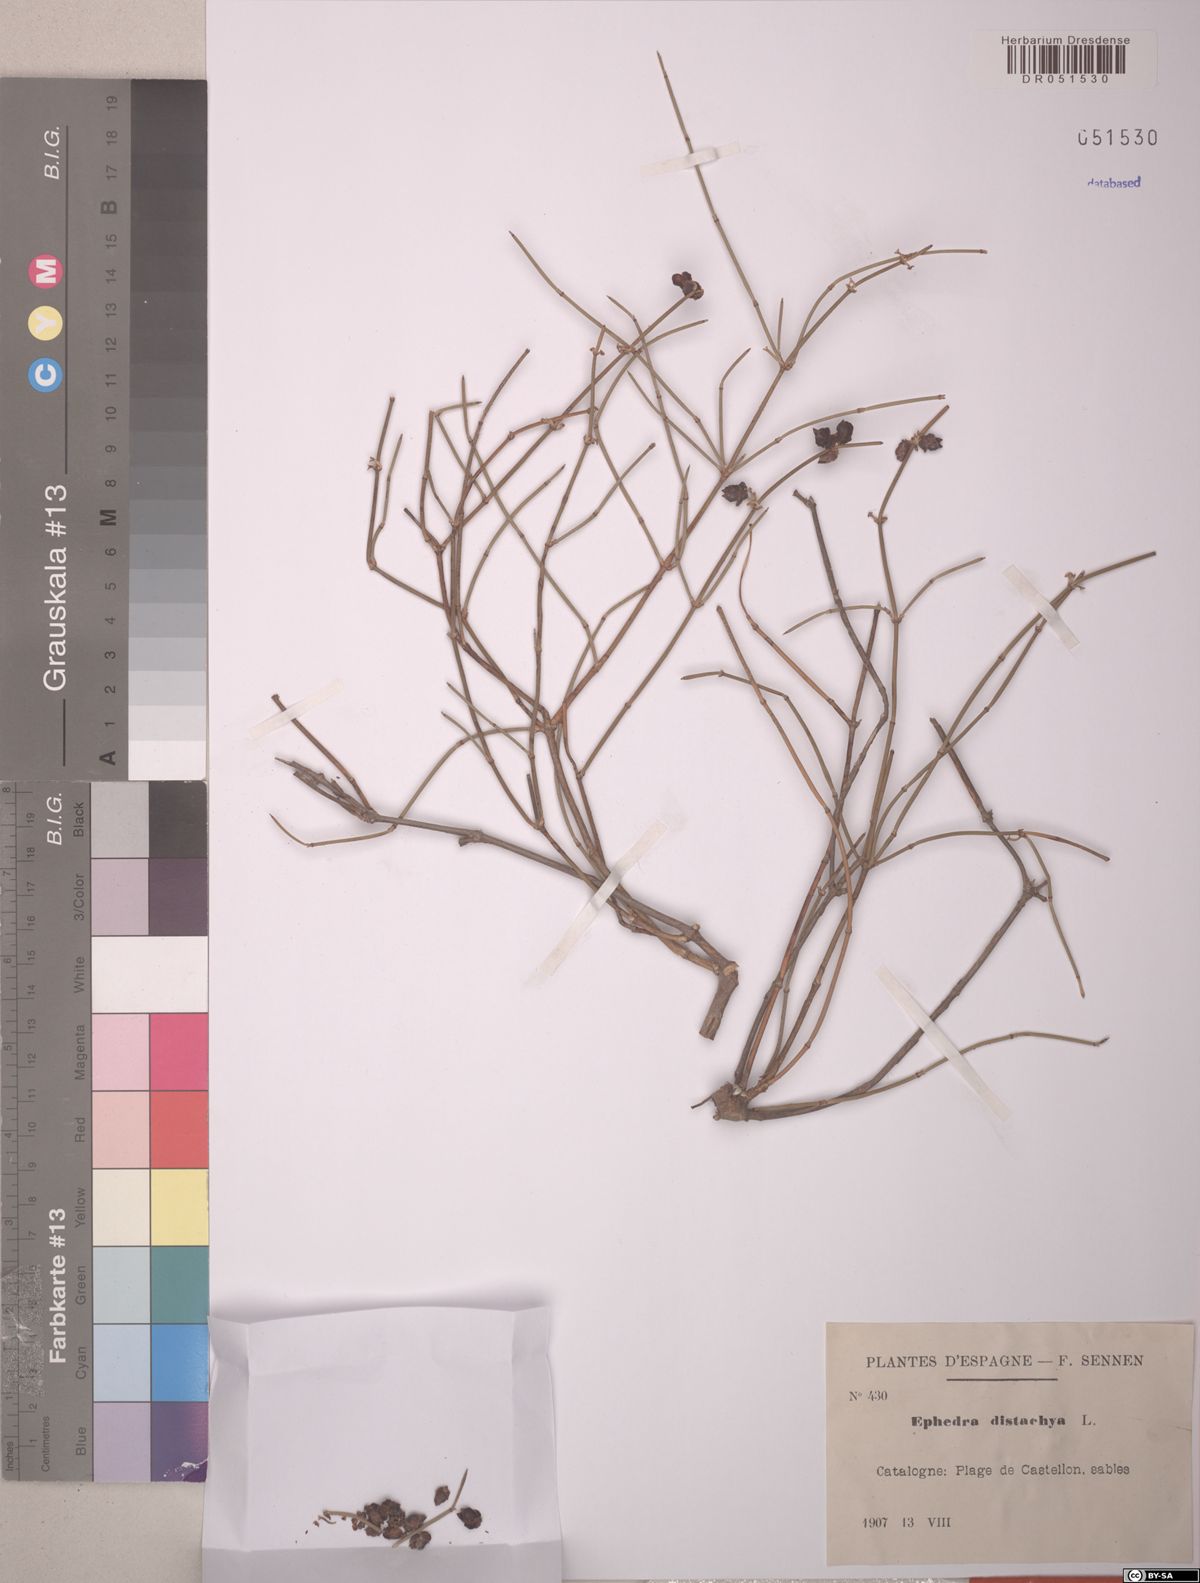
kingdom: Plantae
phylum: Tracheophyta
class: Gnetopsida
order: Ephedrales
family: Ephedraceae
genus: Ephedra
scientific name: Ephedra distachya
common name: Sea grape
